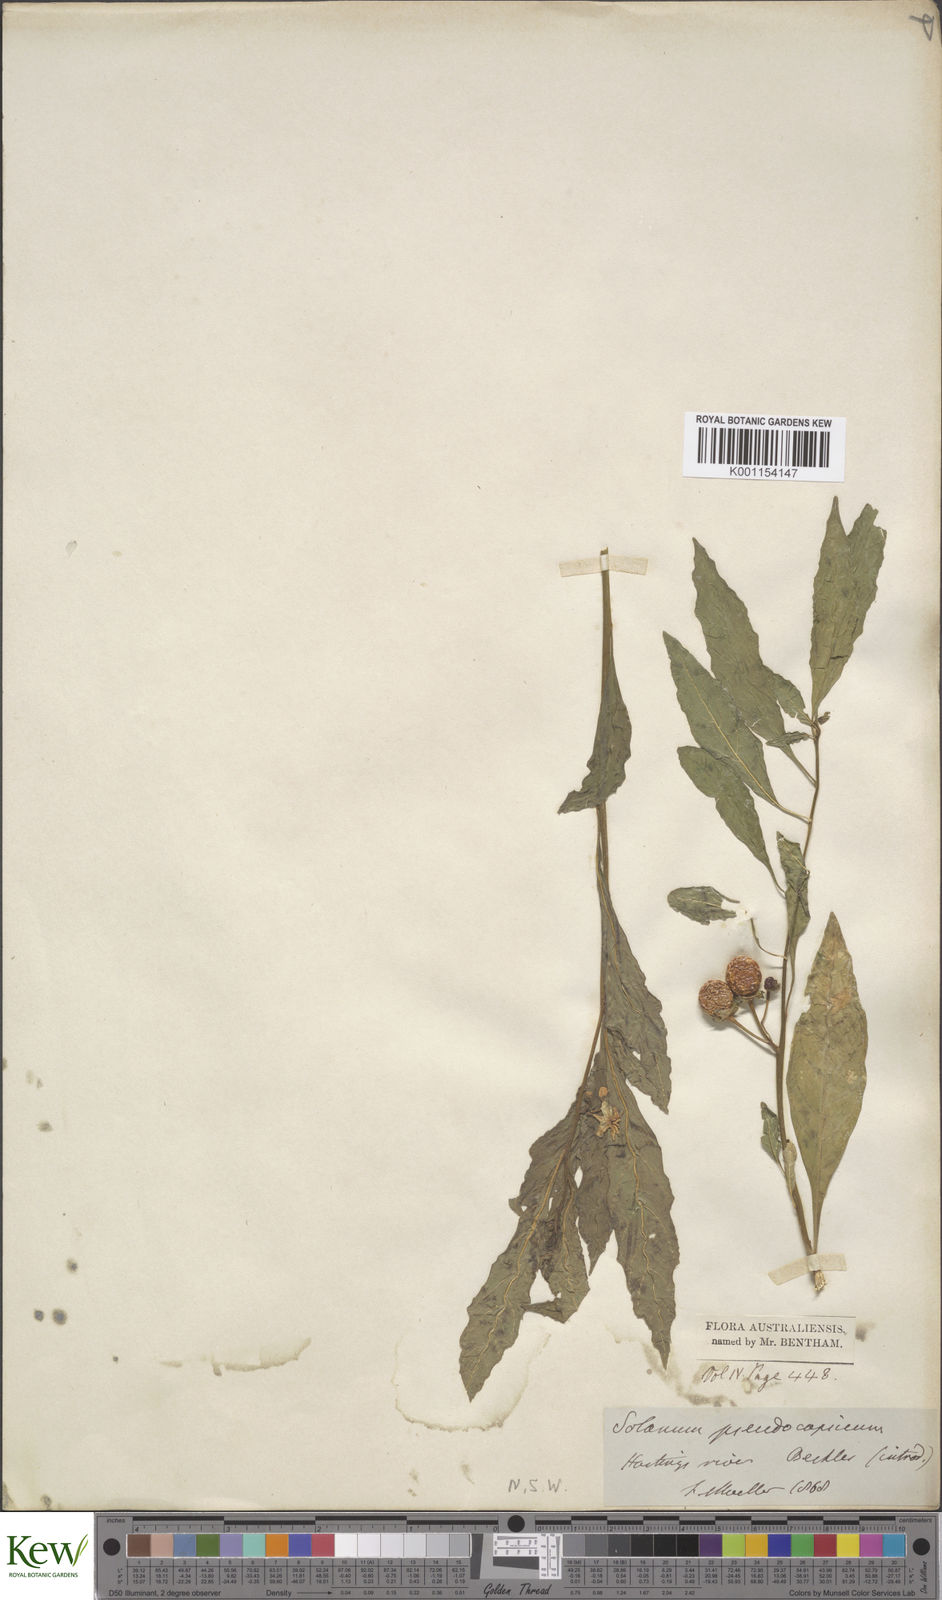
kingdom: Plantae
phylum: Tracheophyta
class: Magnoliopsida
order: Solanales
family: Solanaceae
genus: Solanum
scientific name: Solanum pseudocapsicum
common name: Jerusalem cherry
